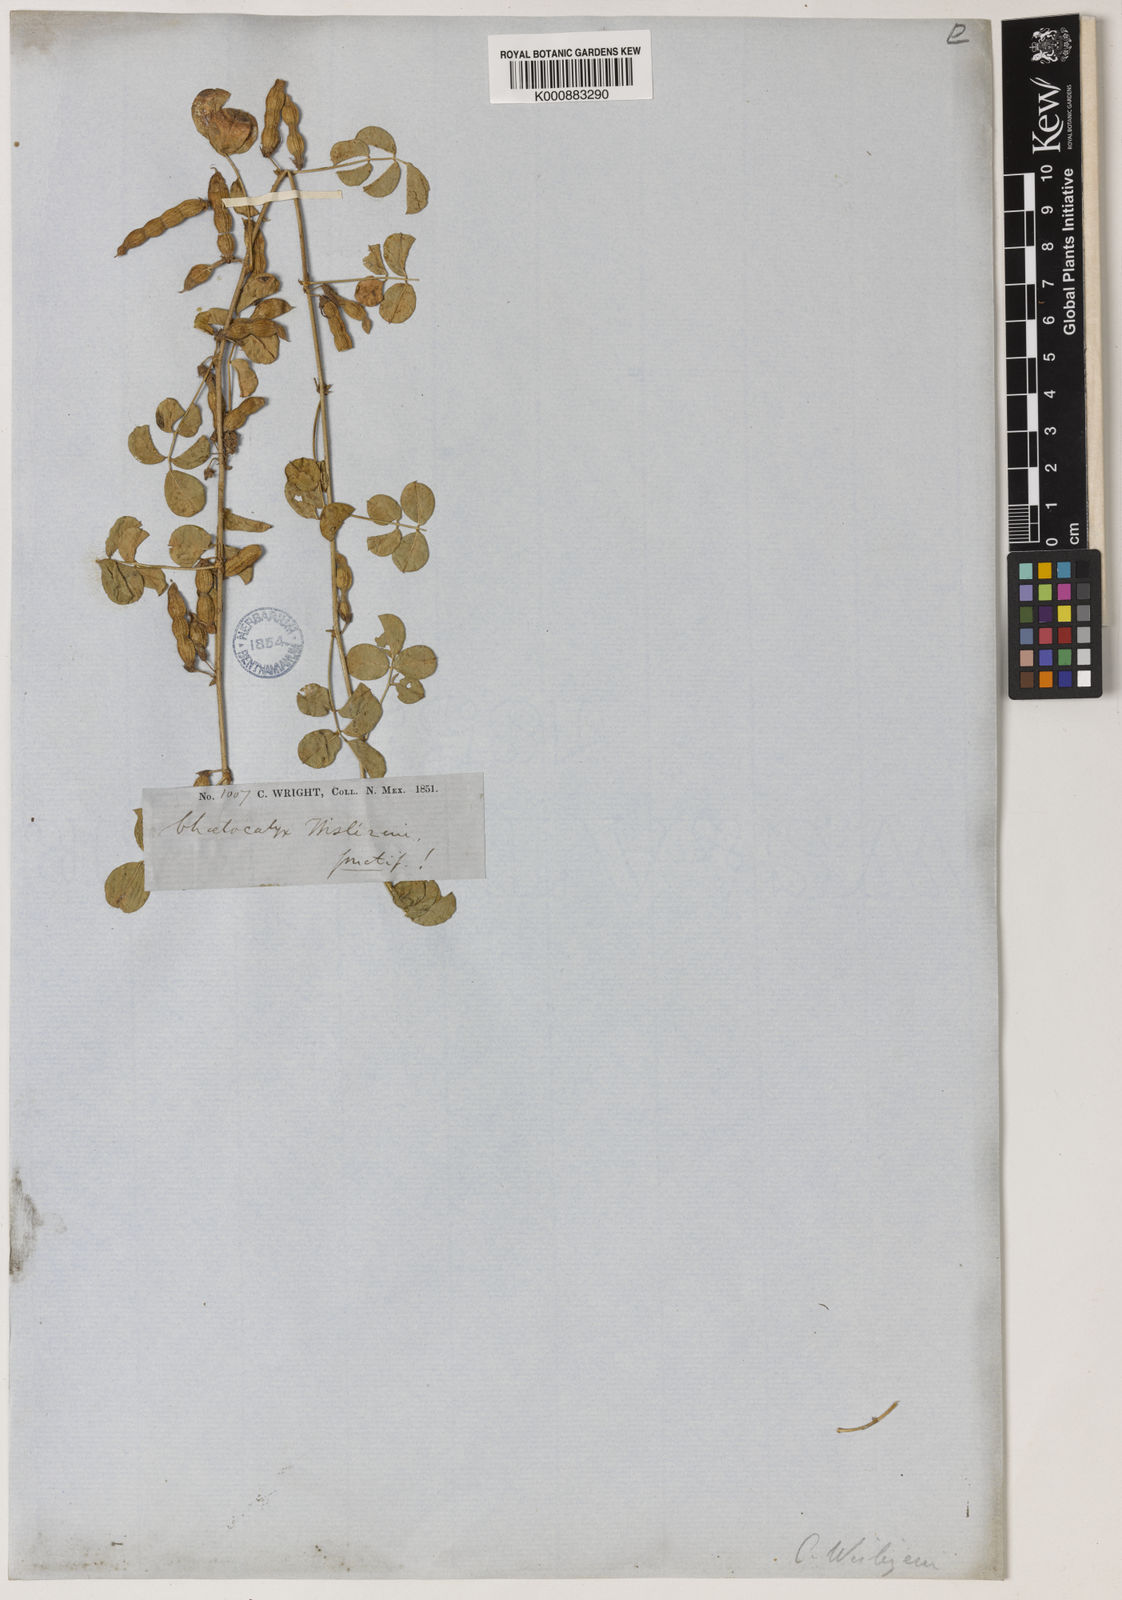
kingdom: Plantae
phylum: Tracheophyta
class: Magnoliopsida
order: Fabales
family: Fabaceae
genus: Nissolia
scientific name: Nissolia wislizeni
